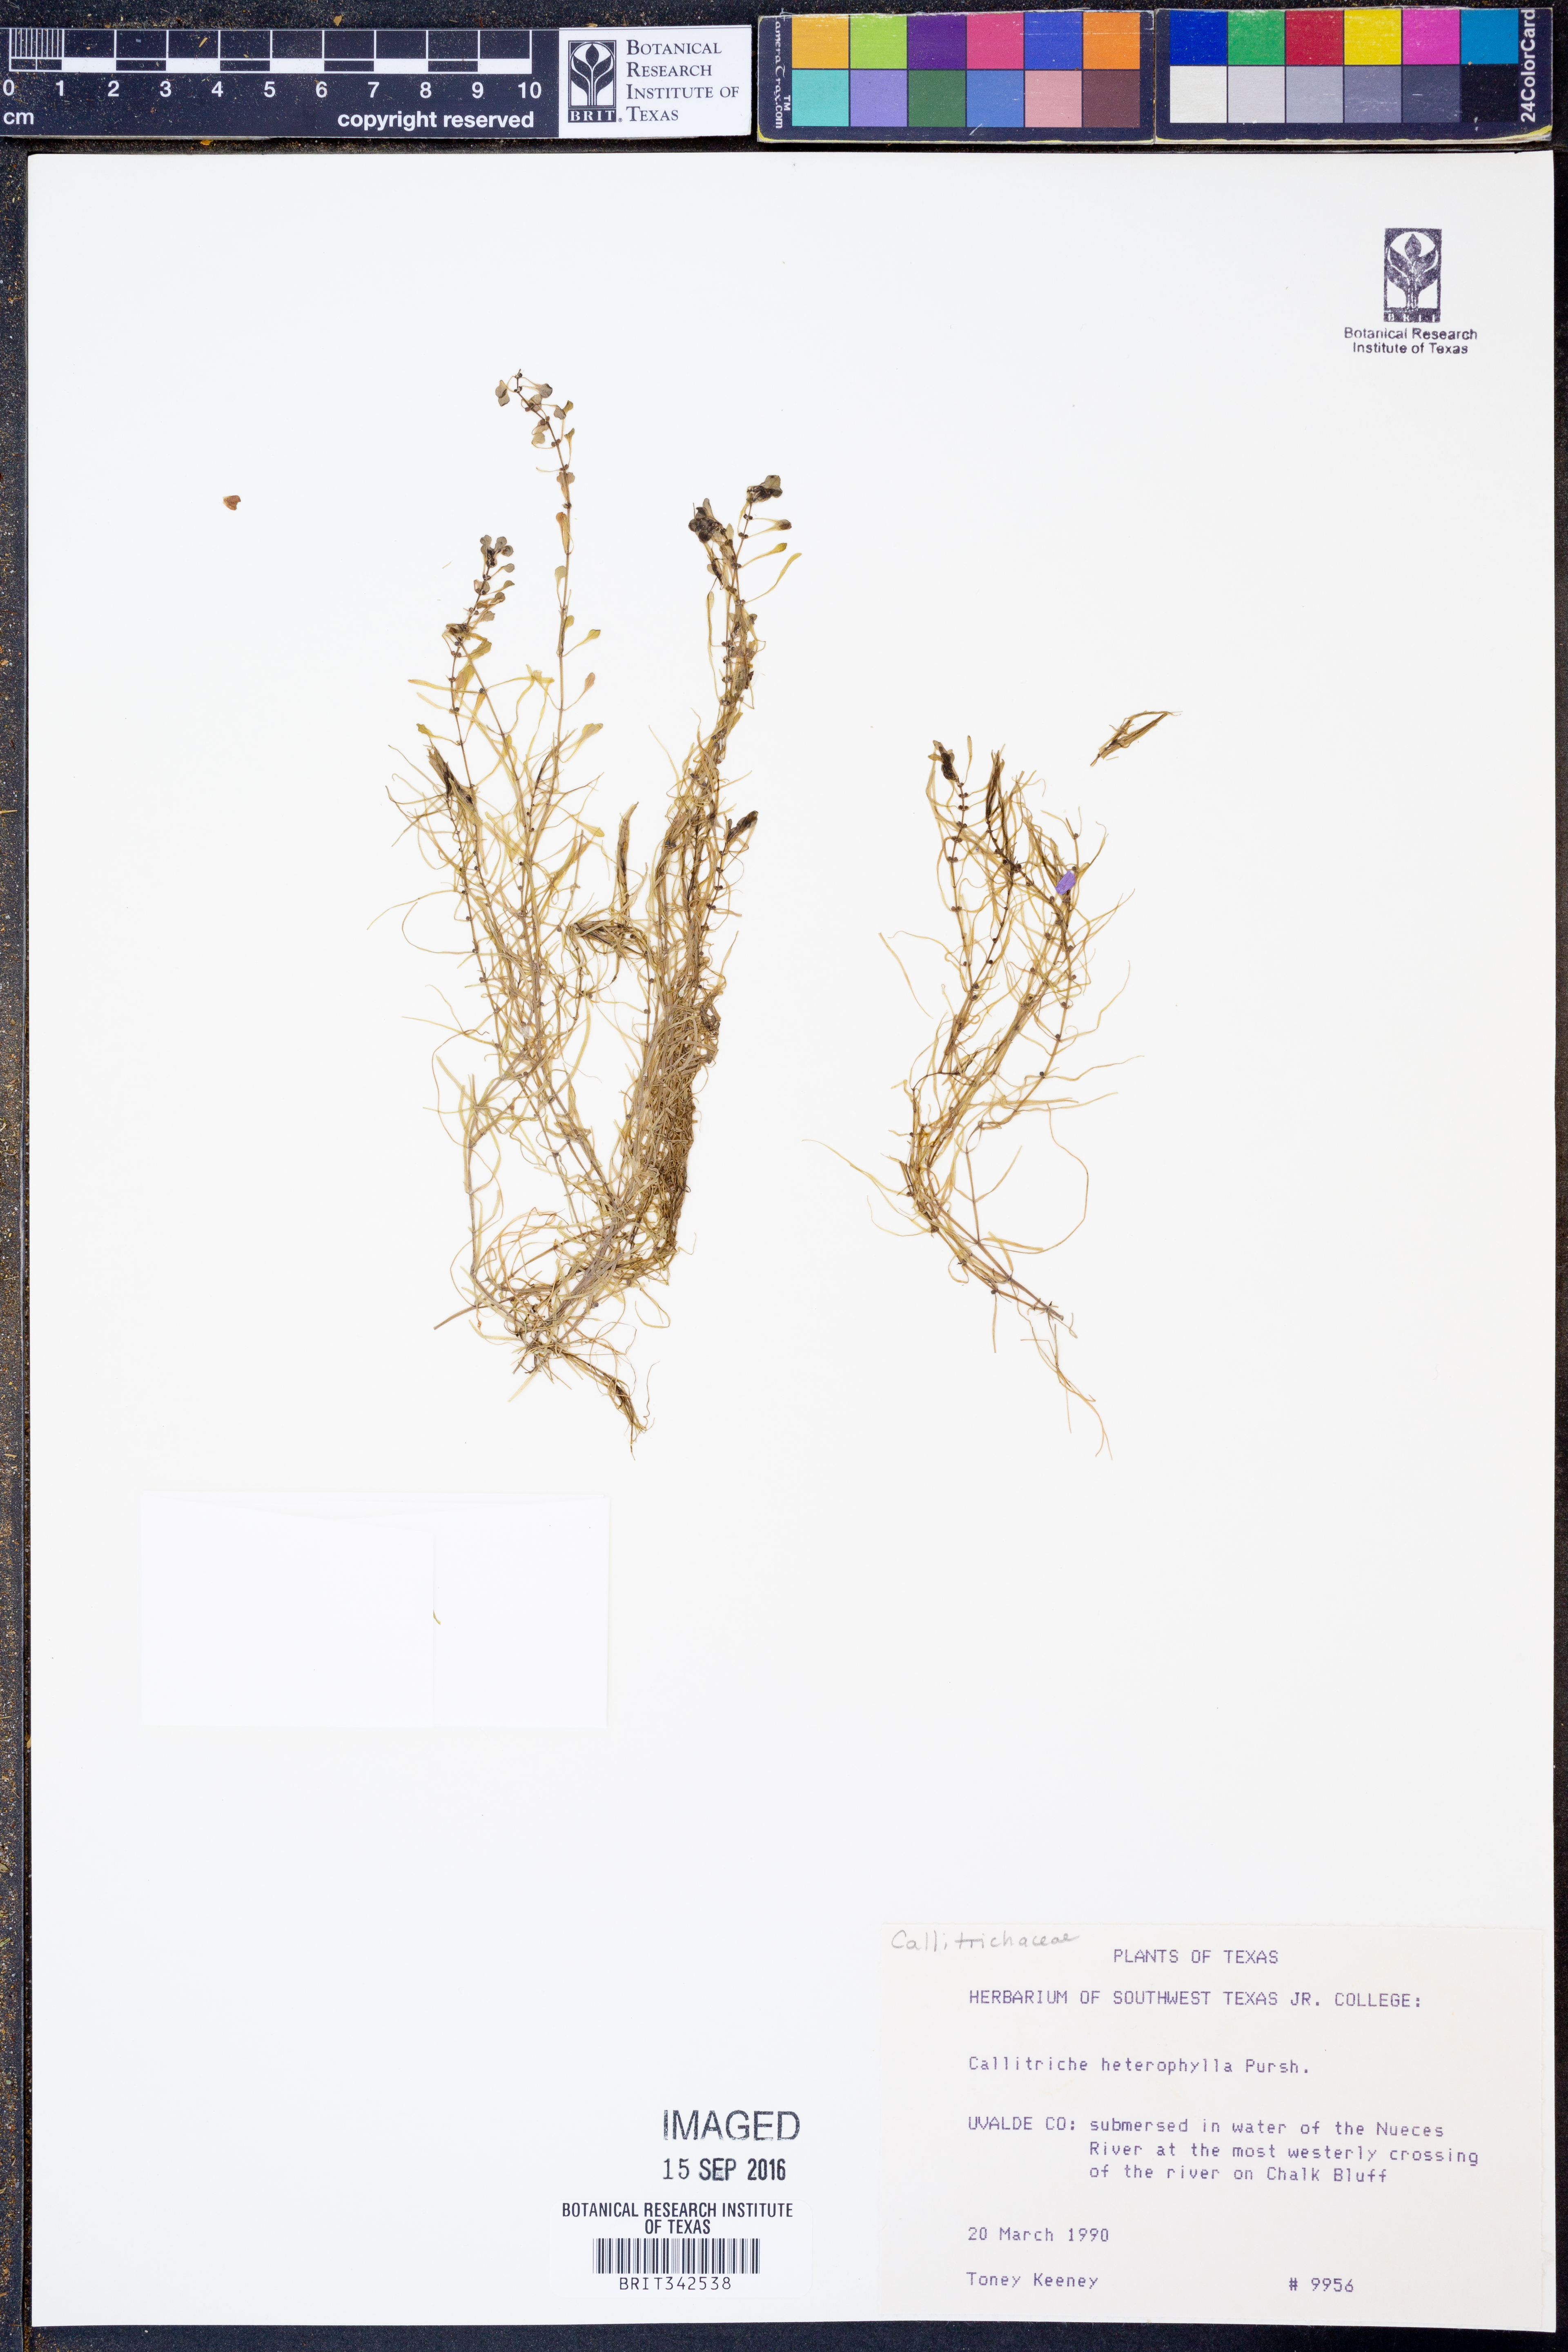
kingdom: Plantae
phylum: Tracheophyta
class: Magnoliopsida
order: Lamiales
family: Plantaginaceae
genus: Callitriche
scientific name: Callitriche heterophylla
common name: Two-headed water-starwort
